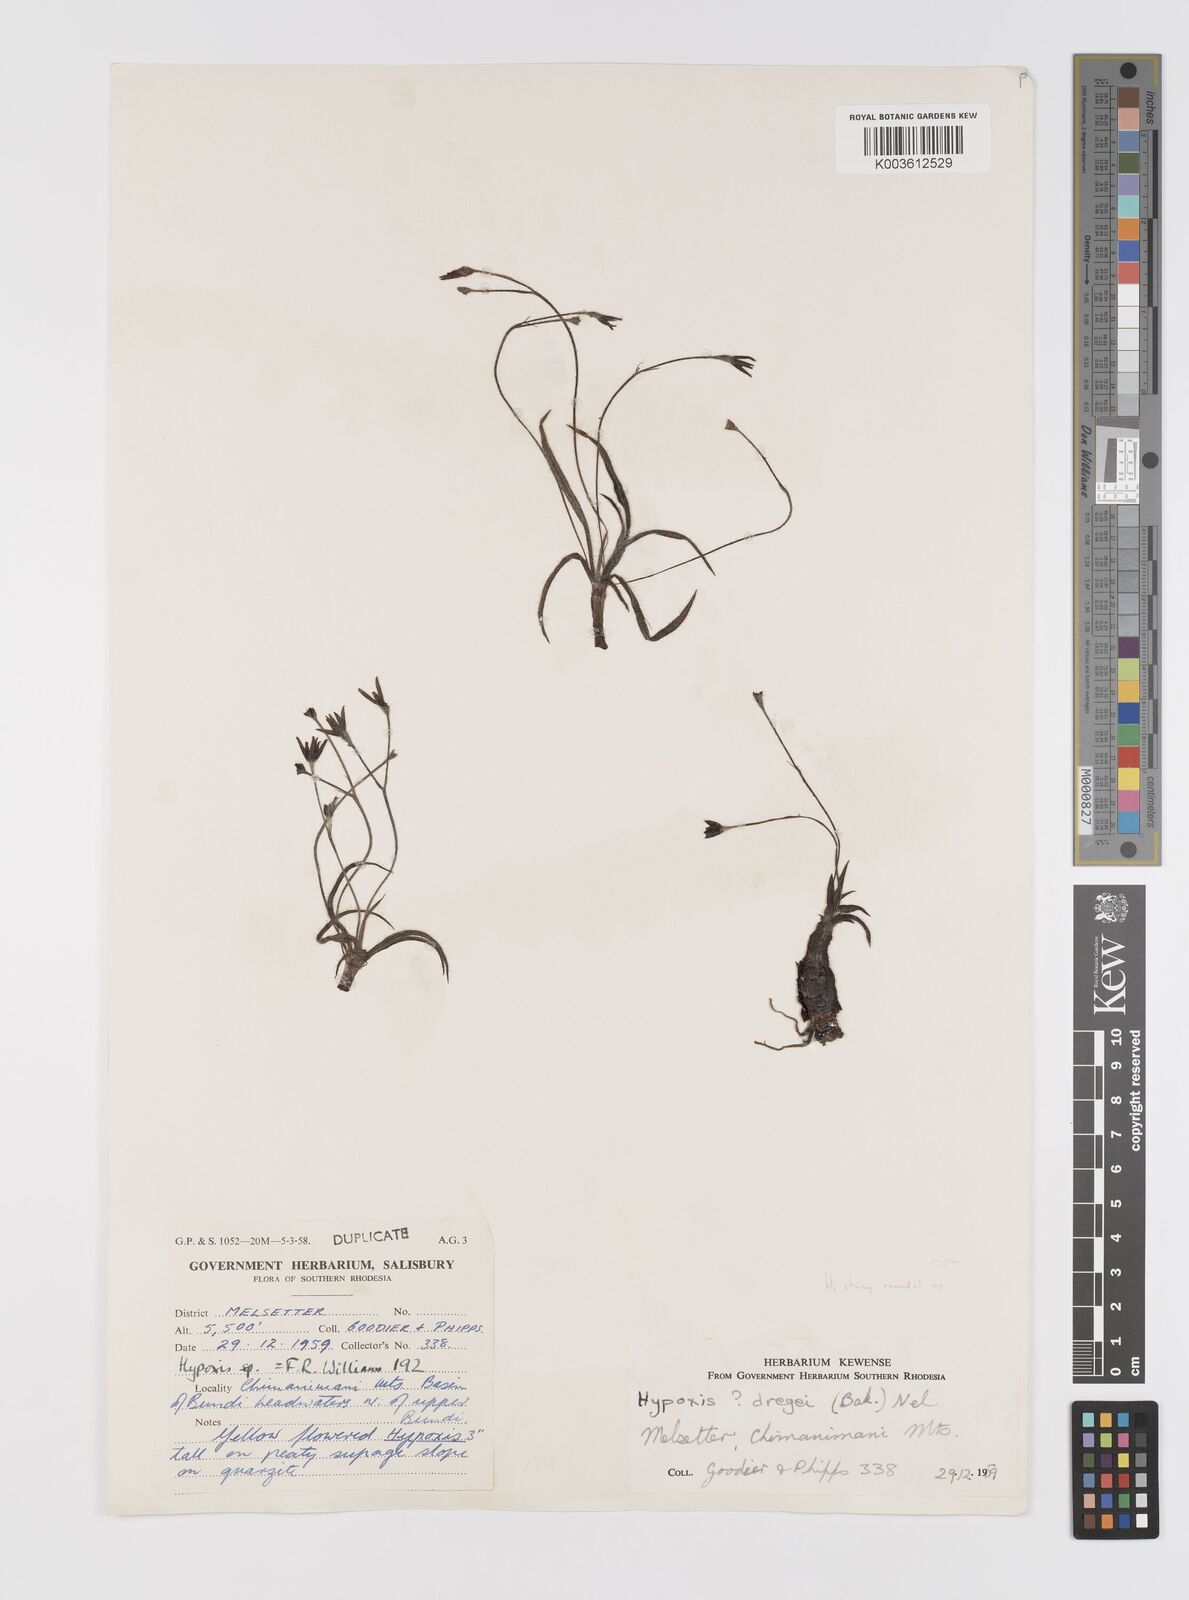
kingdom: Plantae
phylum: Tracheophyta
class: Liliopsida
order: Asparagales
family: Hypoxidaceae
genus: Hypoxis
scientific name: Hypoxis parvifolia
